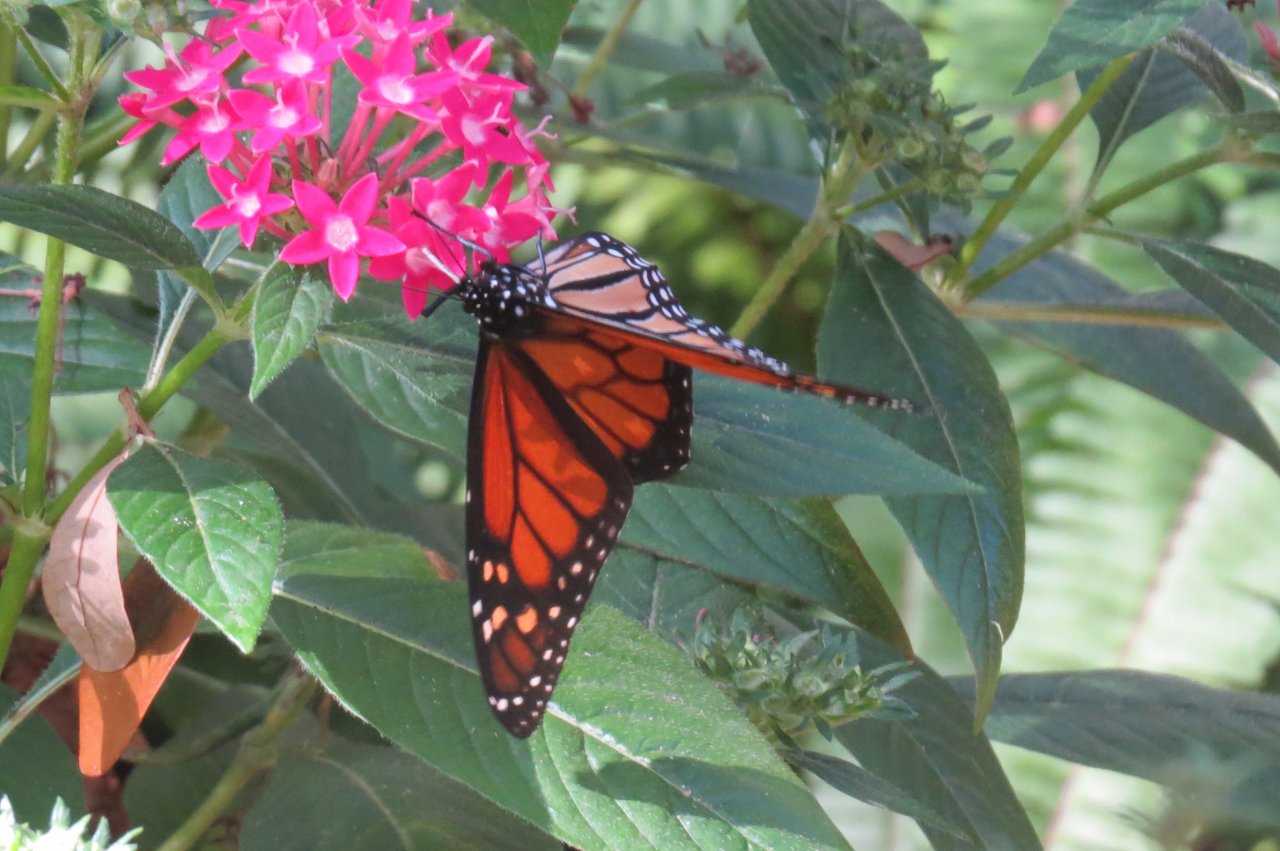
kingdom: Animalia
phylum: Arthropoda
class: Insecta
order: Lepidoptera
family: Nymphalidae
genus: Danaus
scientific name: Danaus plexippus
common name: Monarch
